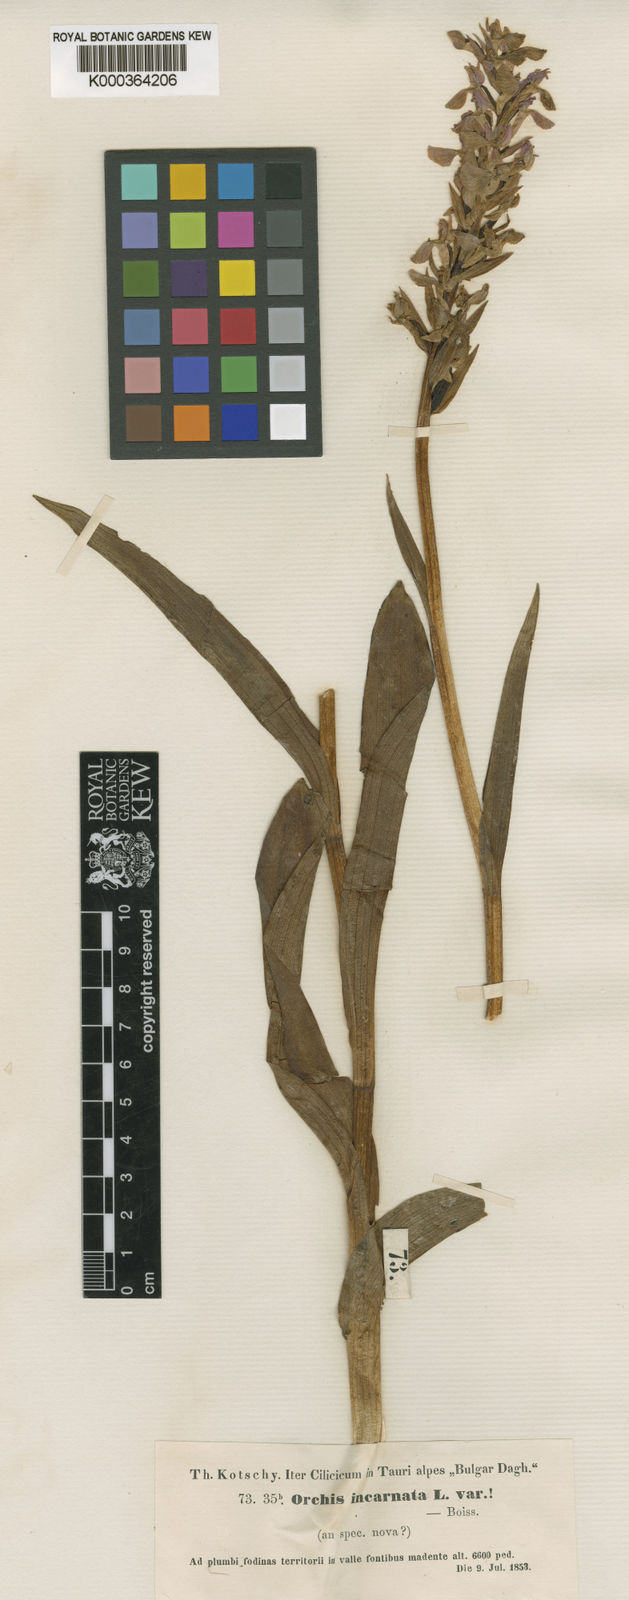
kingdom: Plantae
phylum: Tracheophyta
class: Liliopsida
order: Asparagales
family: Orchidaceae
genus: Dactylorhiza
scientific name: Dactylorhiza
